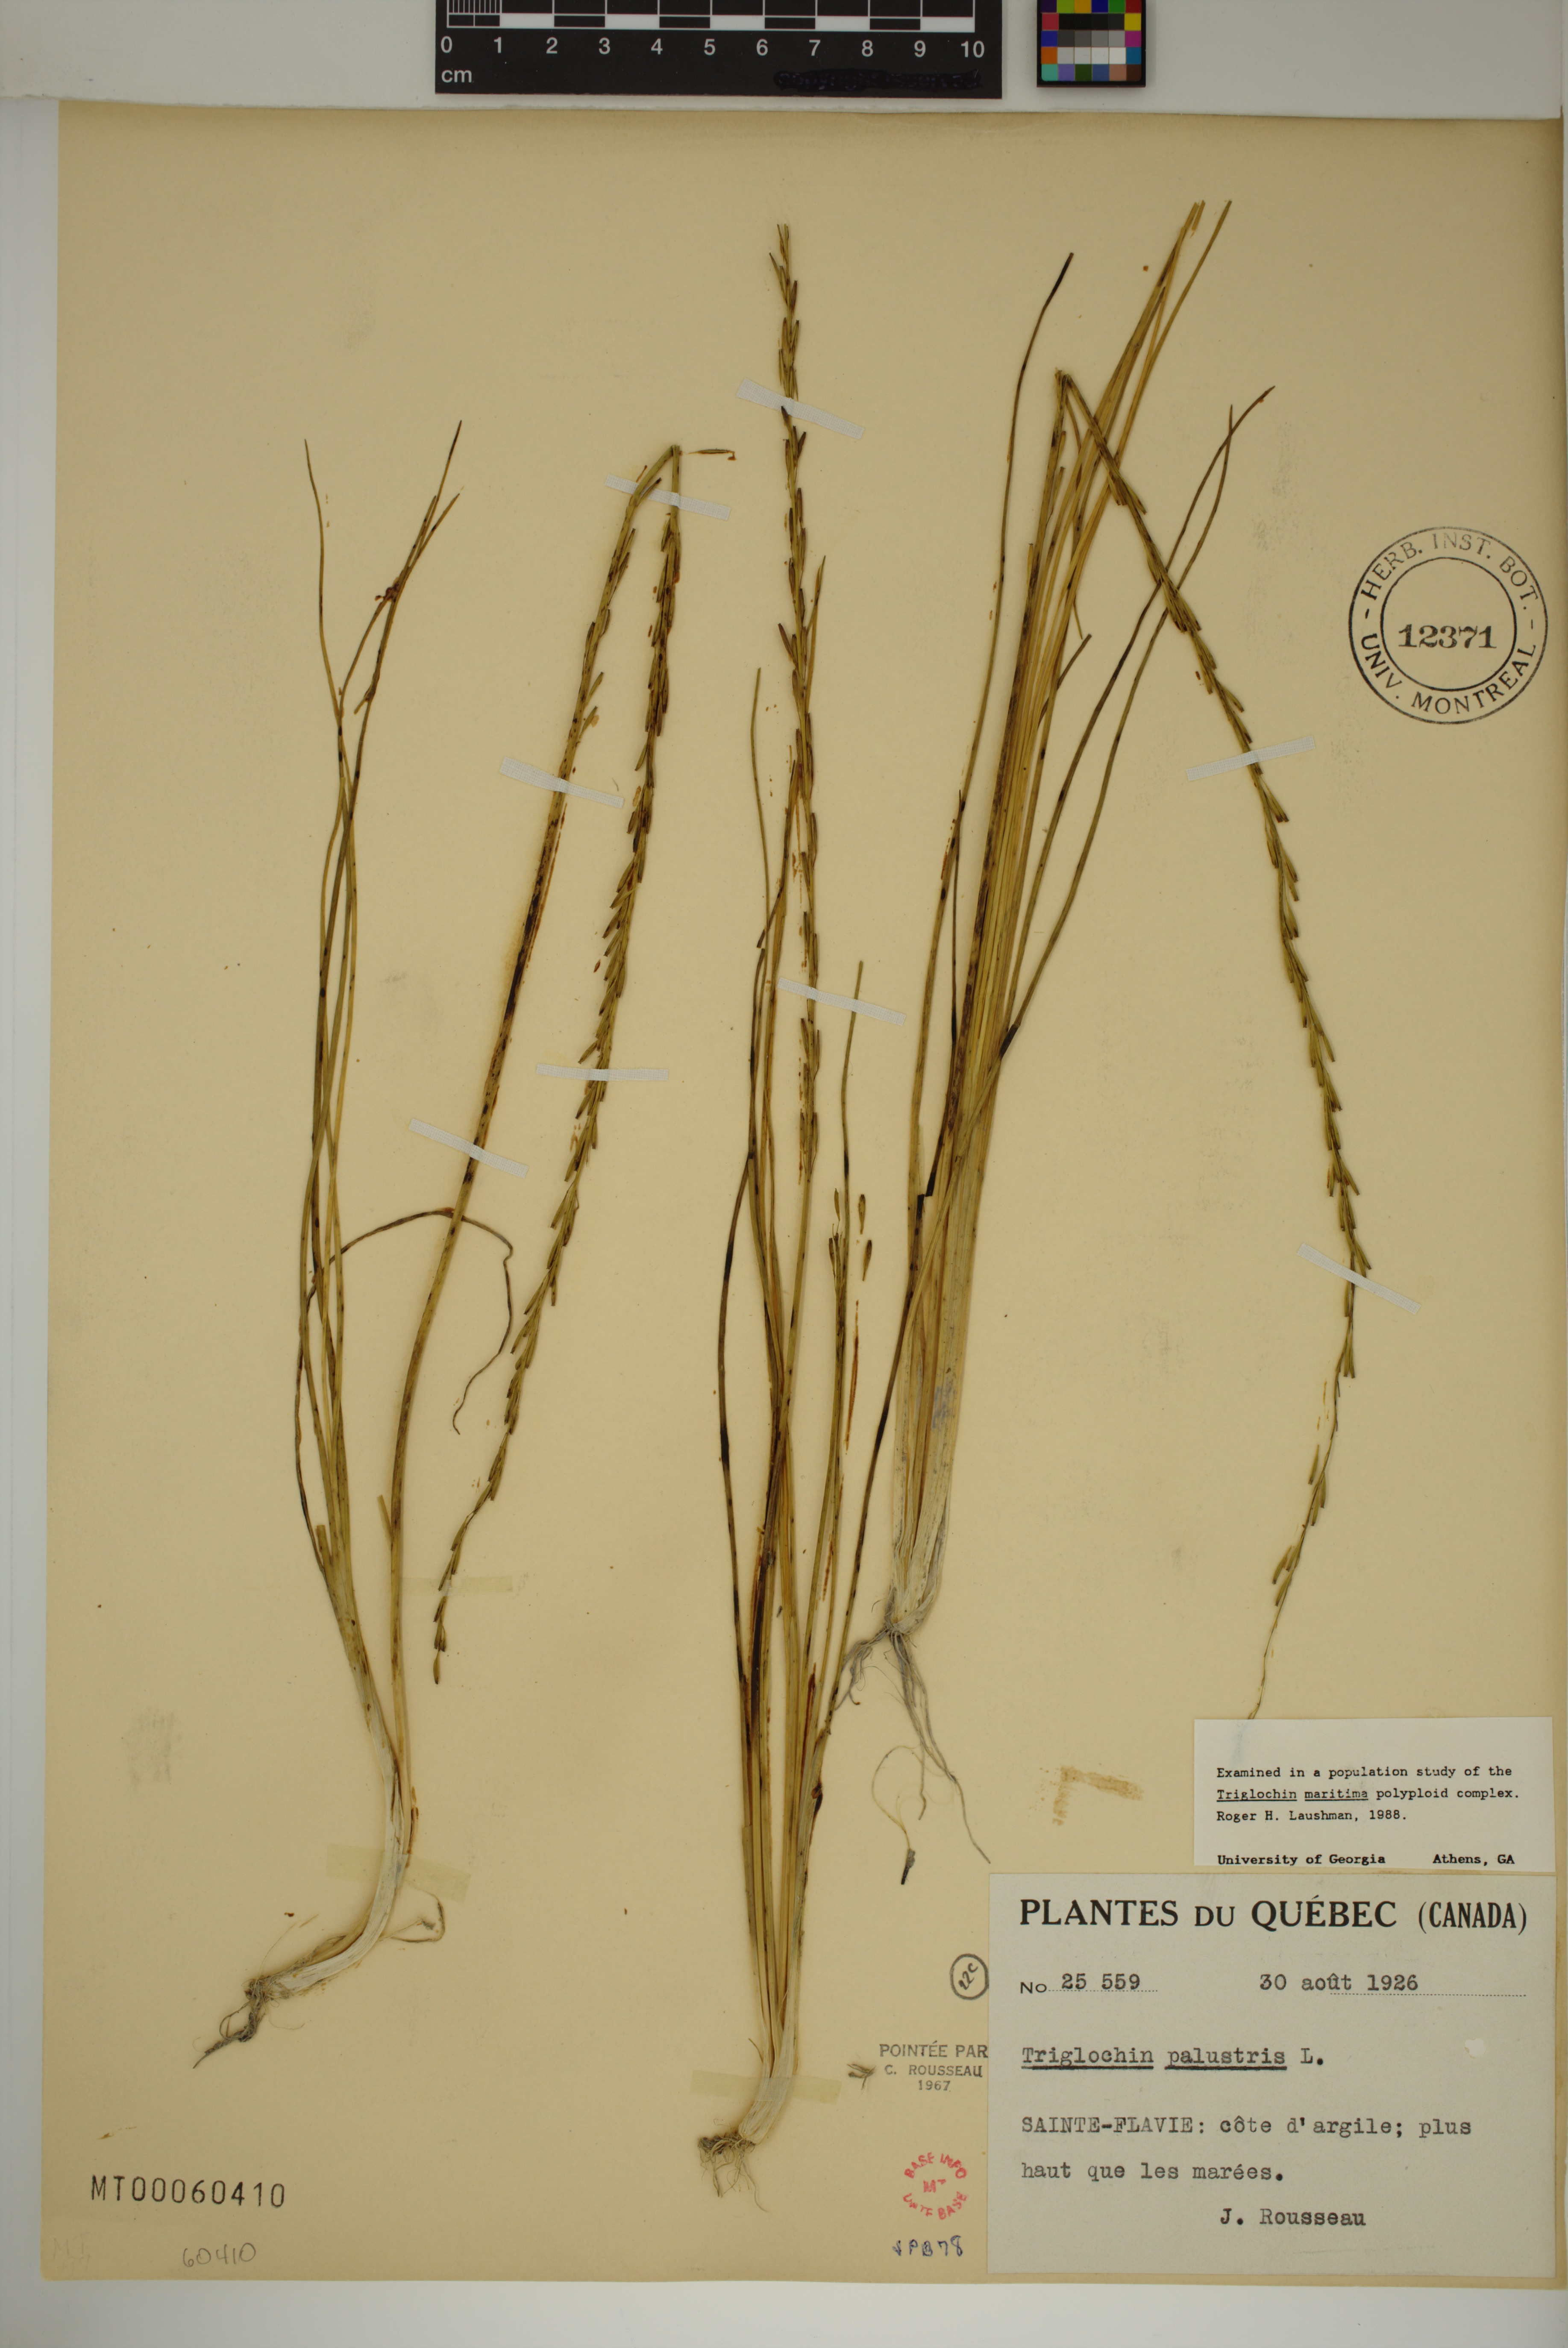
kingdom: Plantae
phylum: Tracheophyta
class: Liliopsida
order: Alismatales
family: Juncaginaceae
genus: Triglochin
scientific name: Triglochin palustris
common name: Marsh arrowgrass
